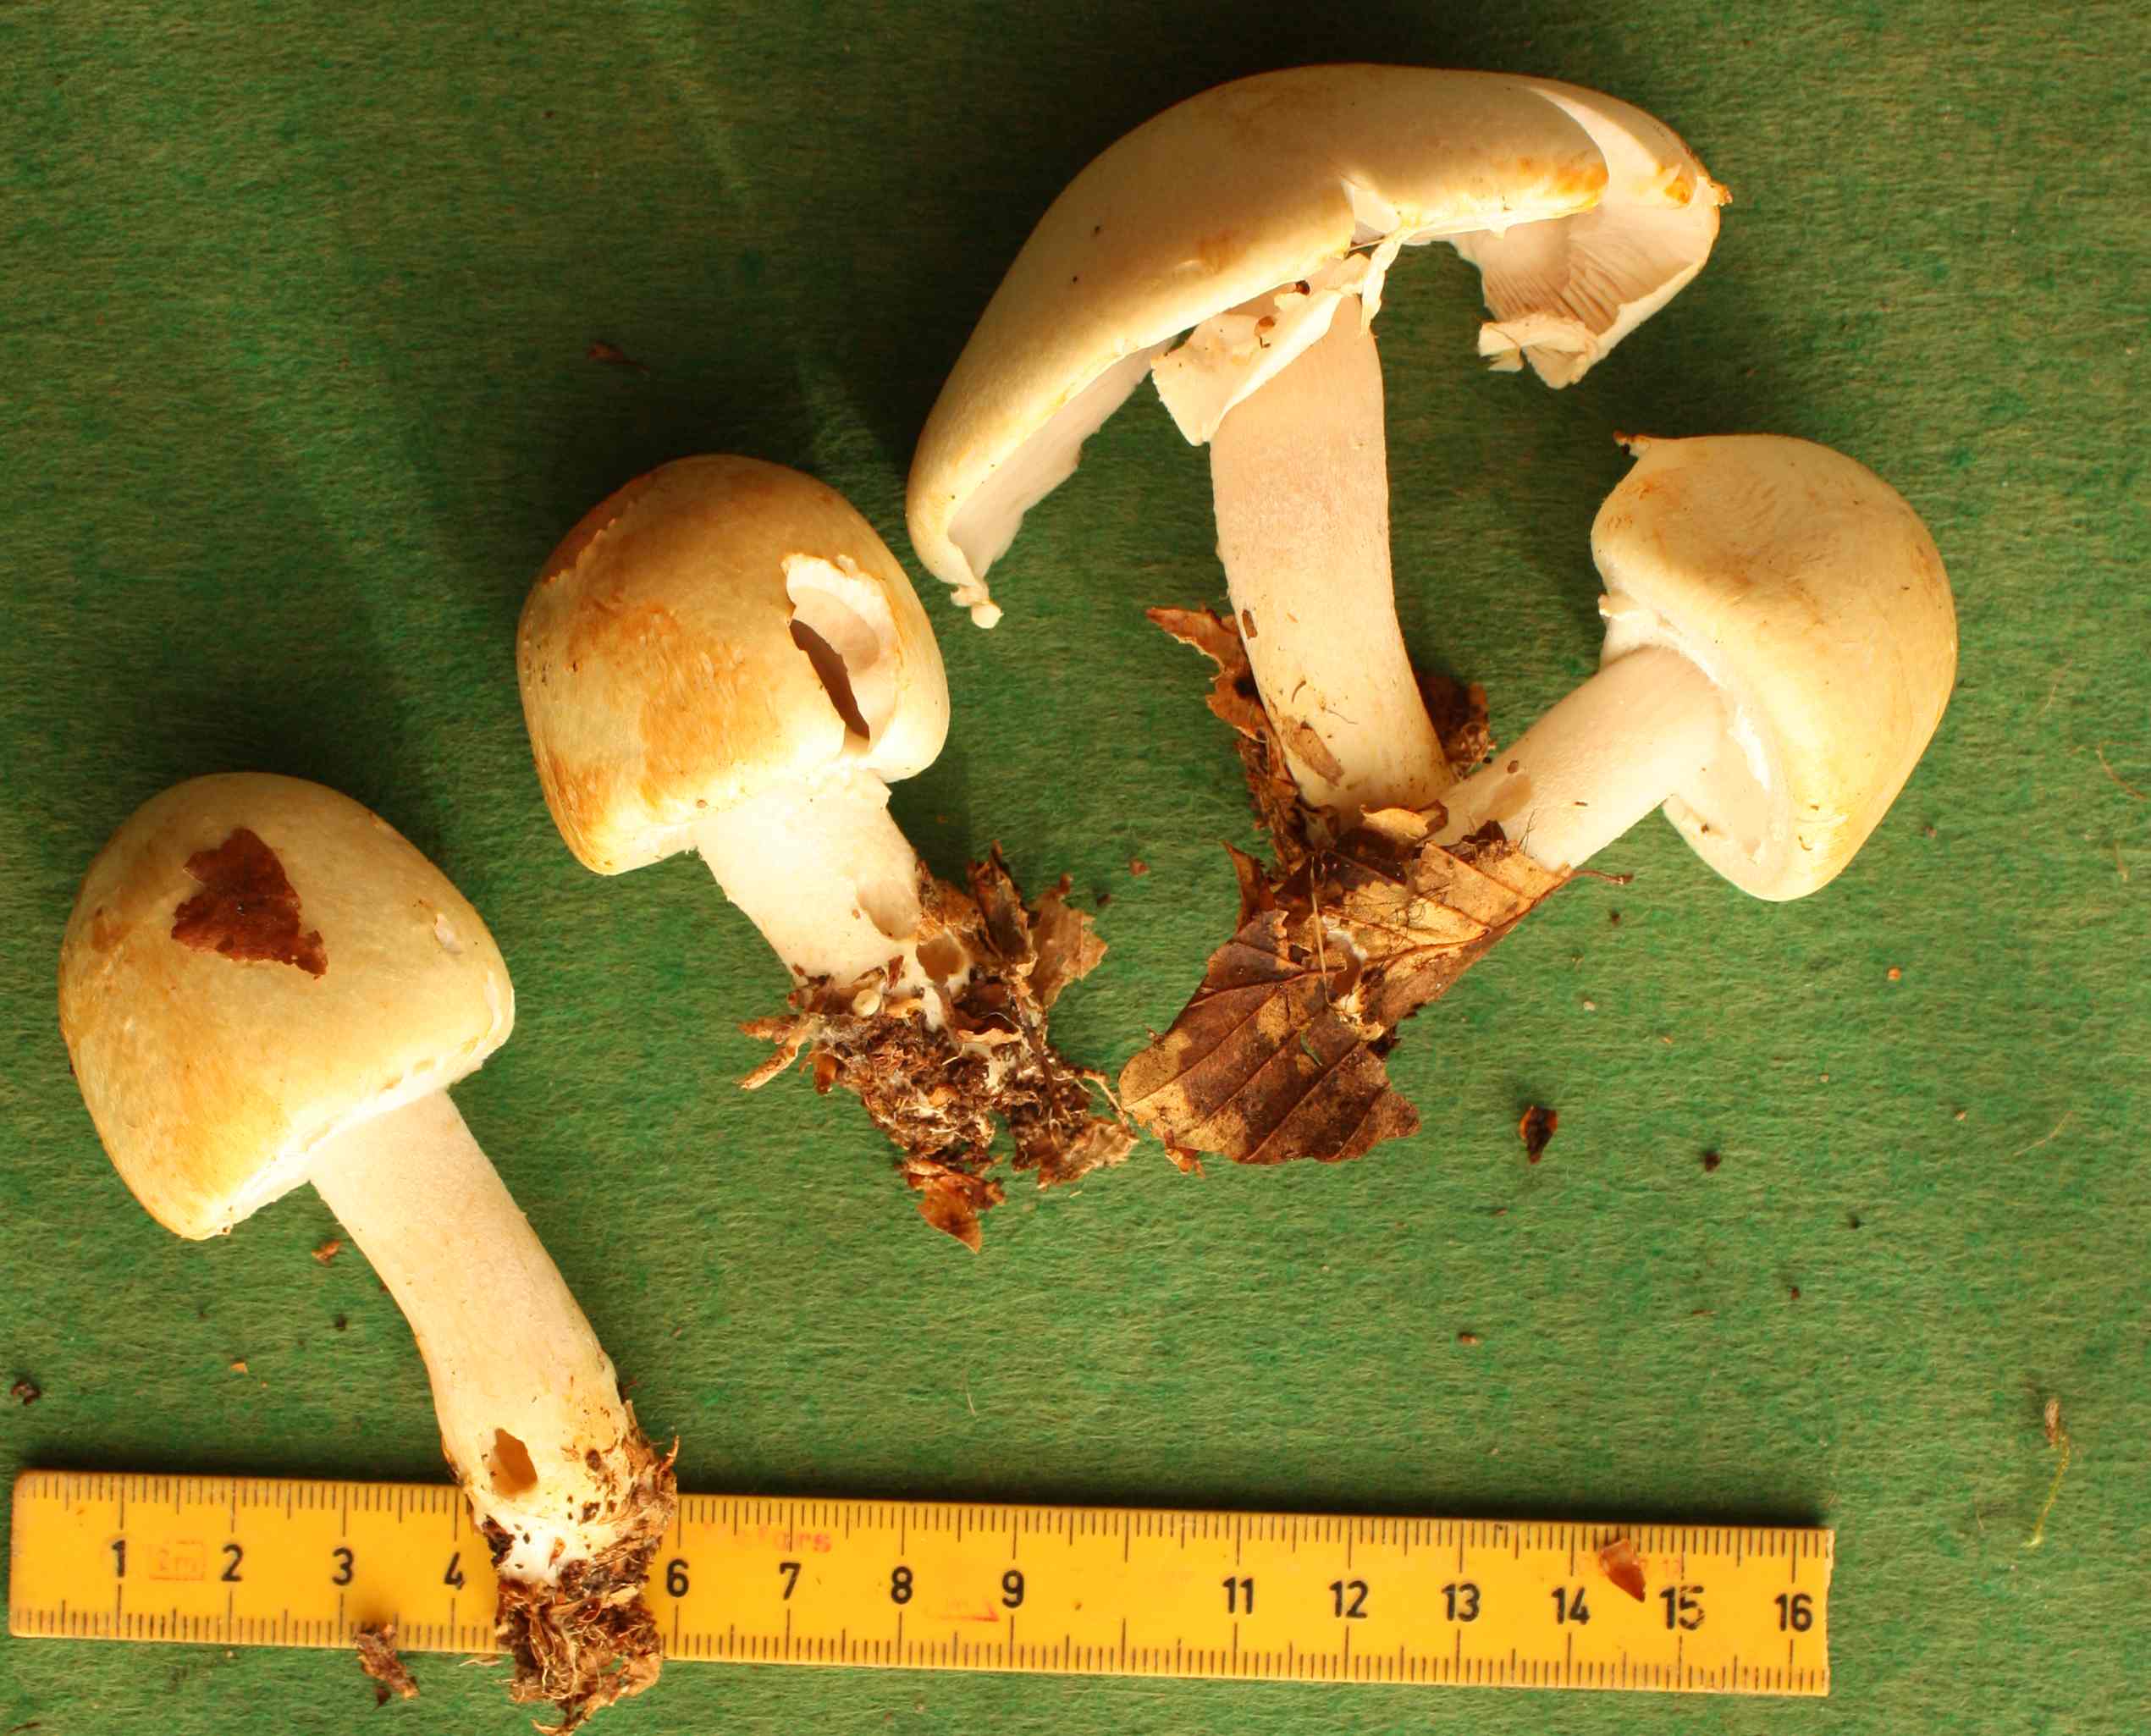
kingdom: Fungi
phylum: Basidiomycota
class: Agaricomycetes
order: Agaricales
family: Agaricaceae
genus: Agaricus
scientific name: Agaricus sylvicola
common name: gulhvid champignon
